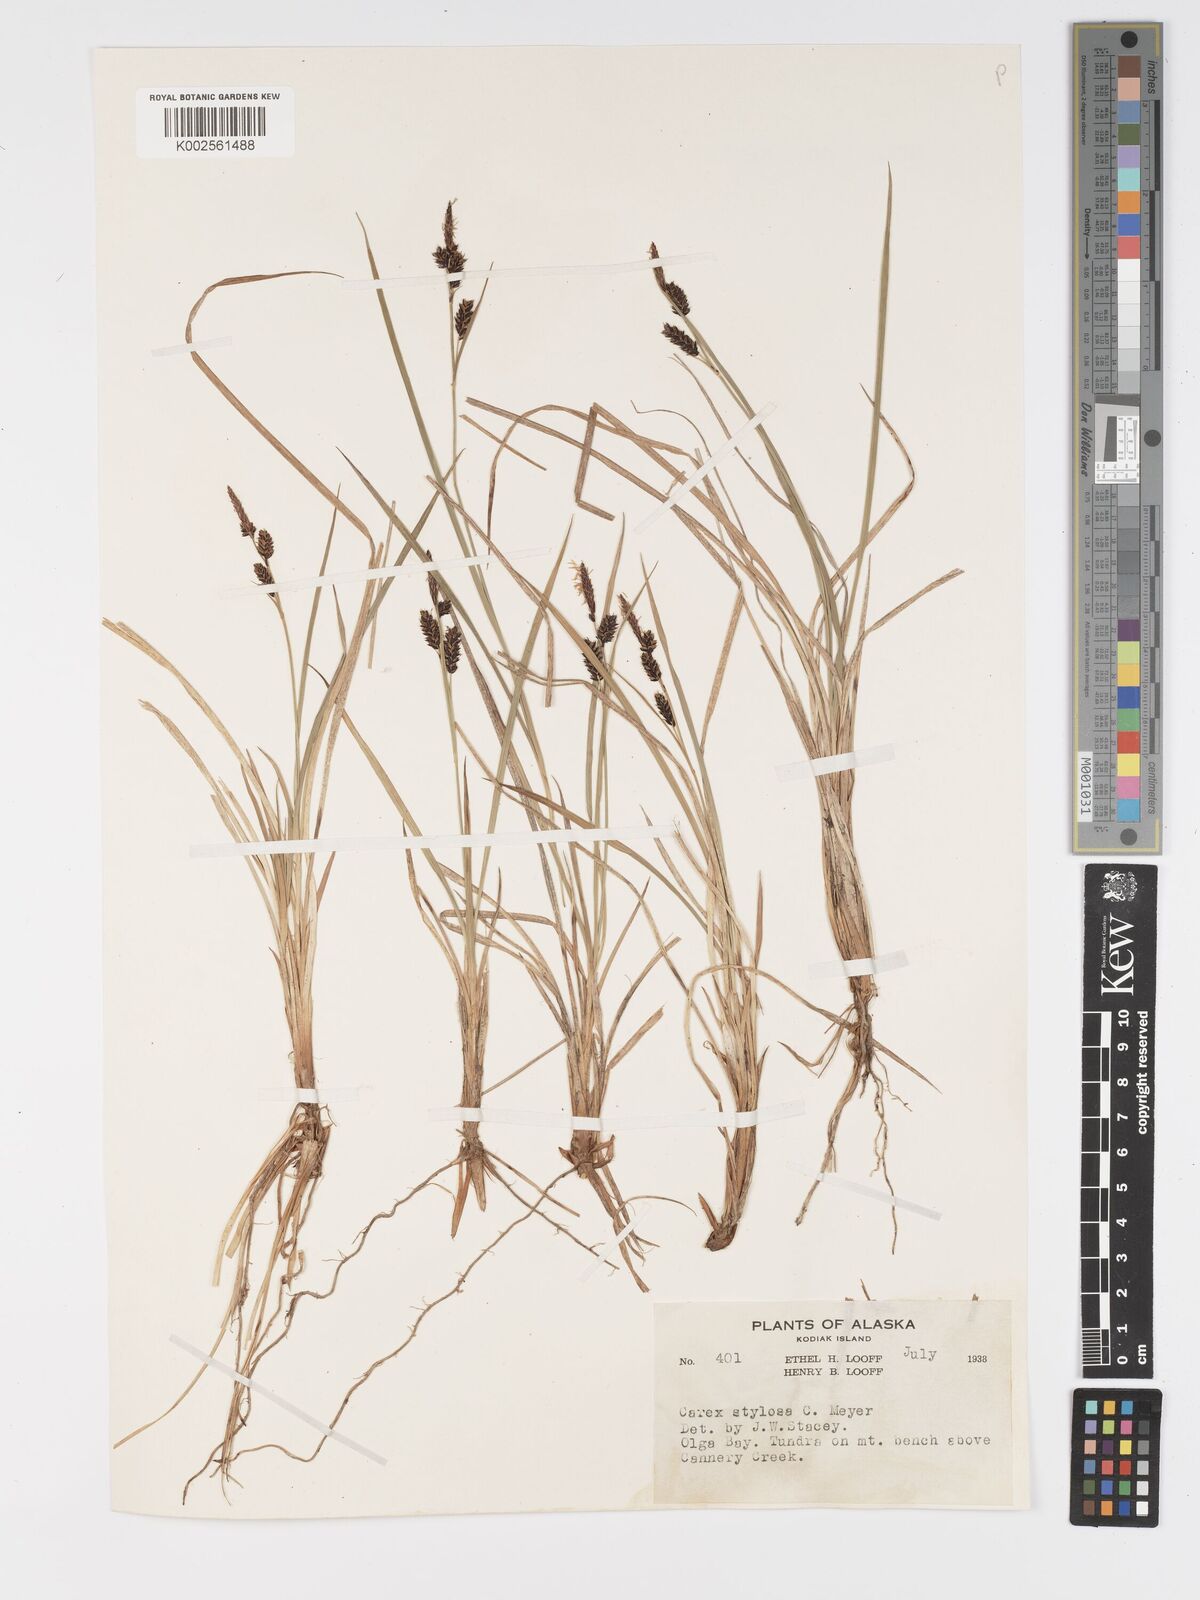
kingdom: Plantae
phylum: Tracheophyta
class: Liliopsida
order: Poales
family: Cyperaceae
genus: Carex
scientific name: Carex stylosa
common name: Long-styled sedge
